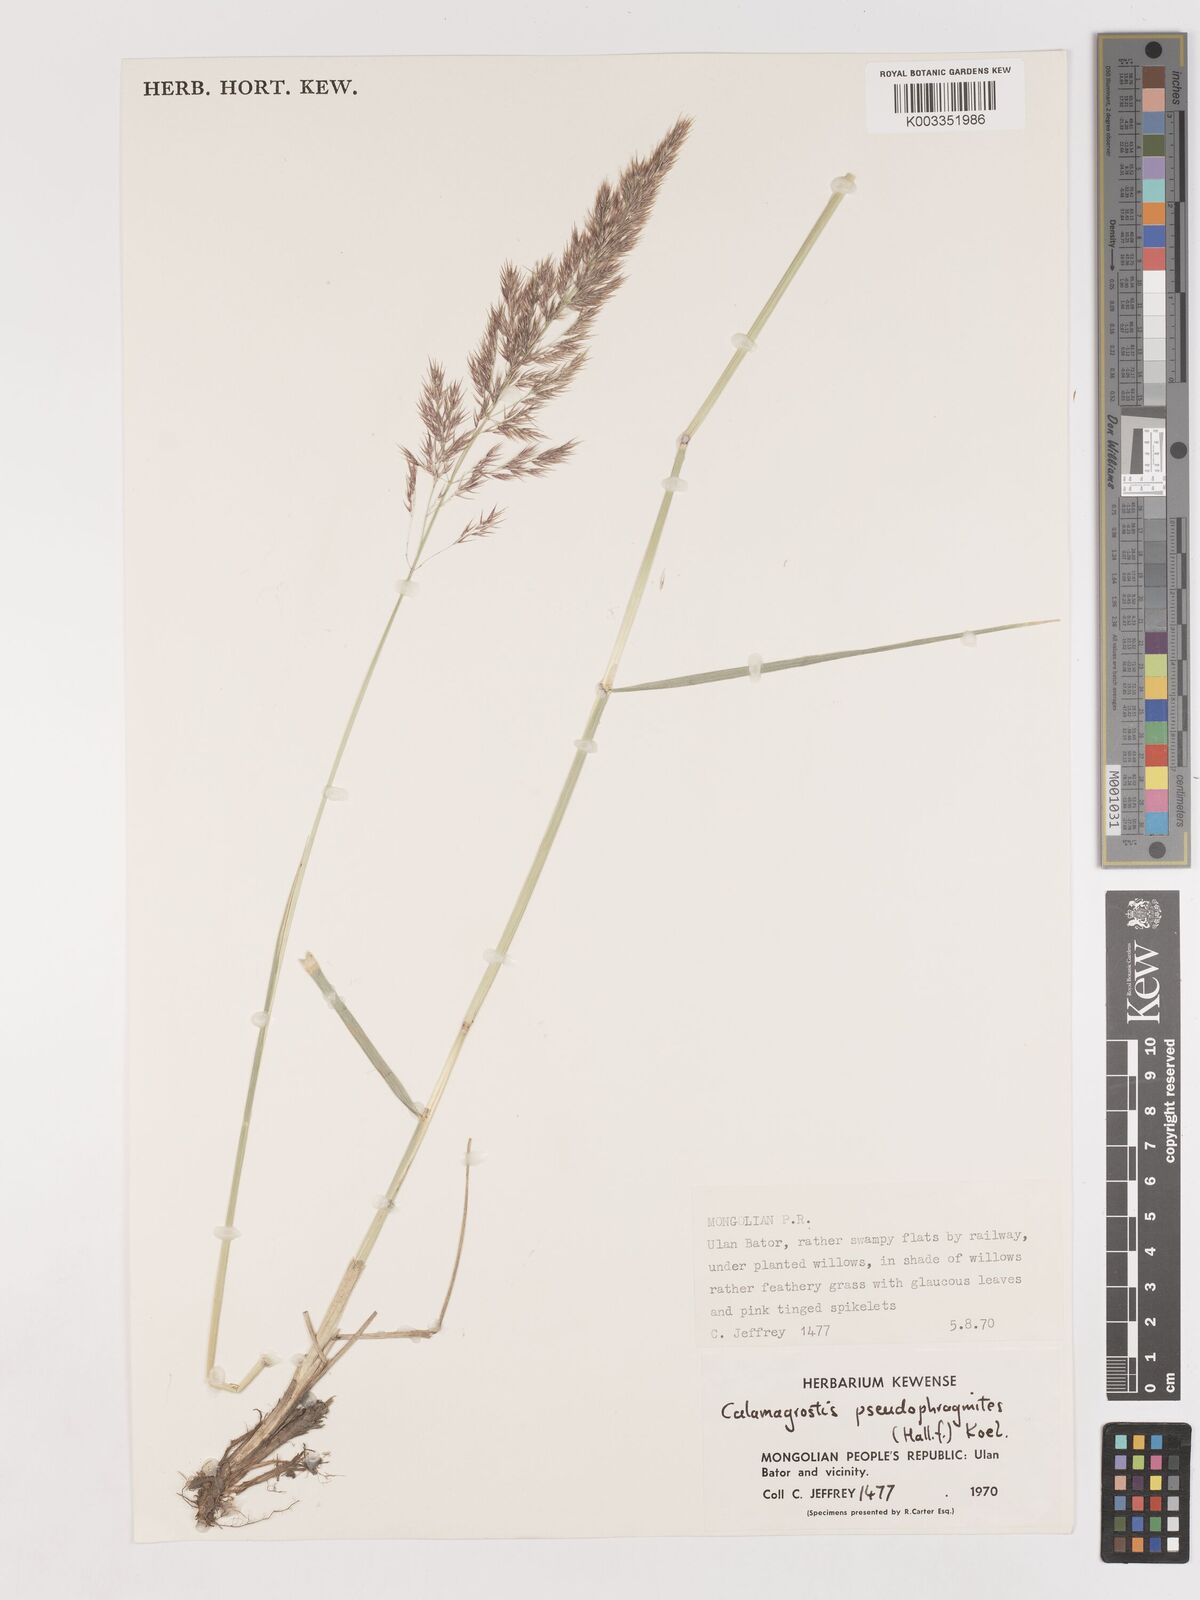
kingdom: Plantae
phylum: Tracheophyta
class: Liliopsida
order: Poales
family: Poaceae
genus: Calamagrostis
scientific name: Calamagrostis pseudophragmites
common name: Coastal small-reed
